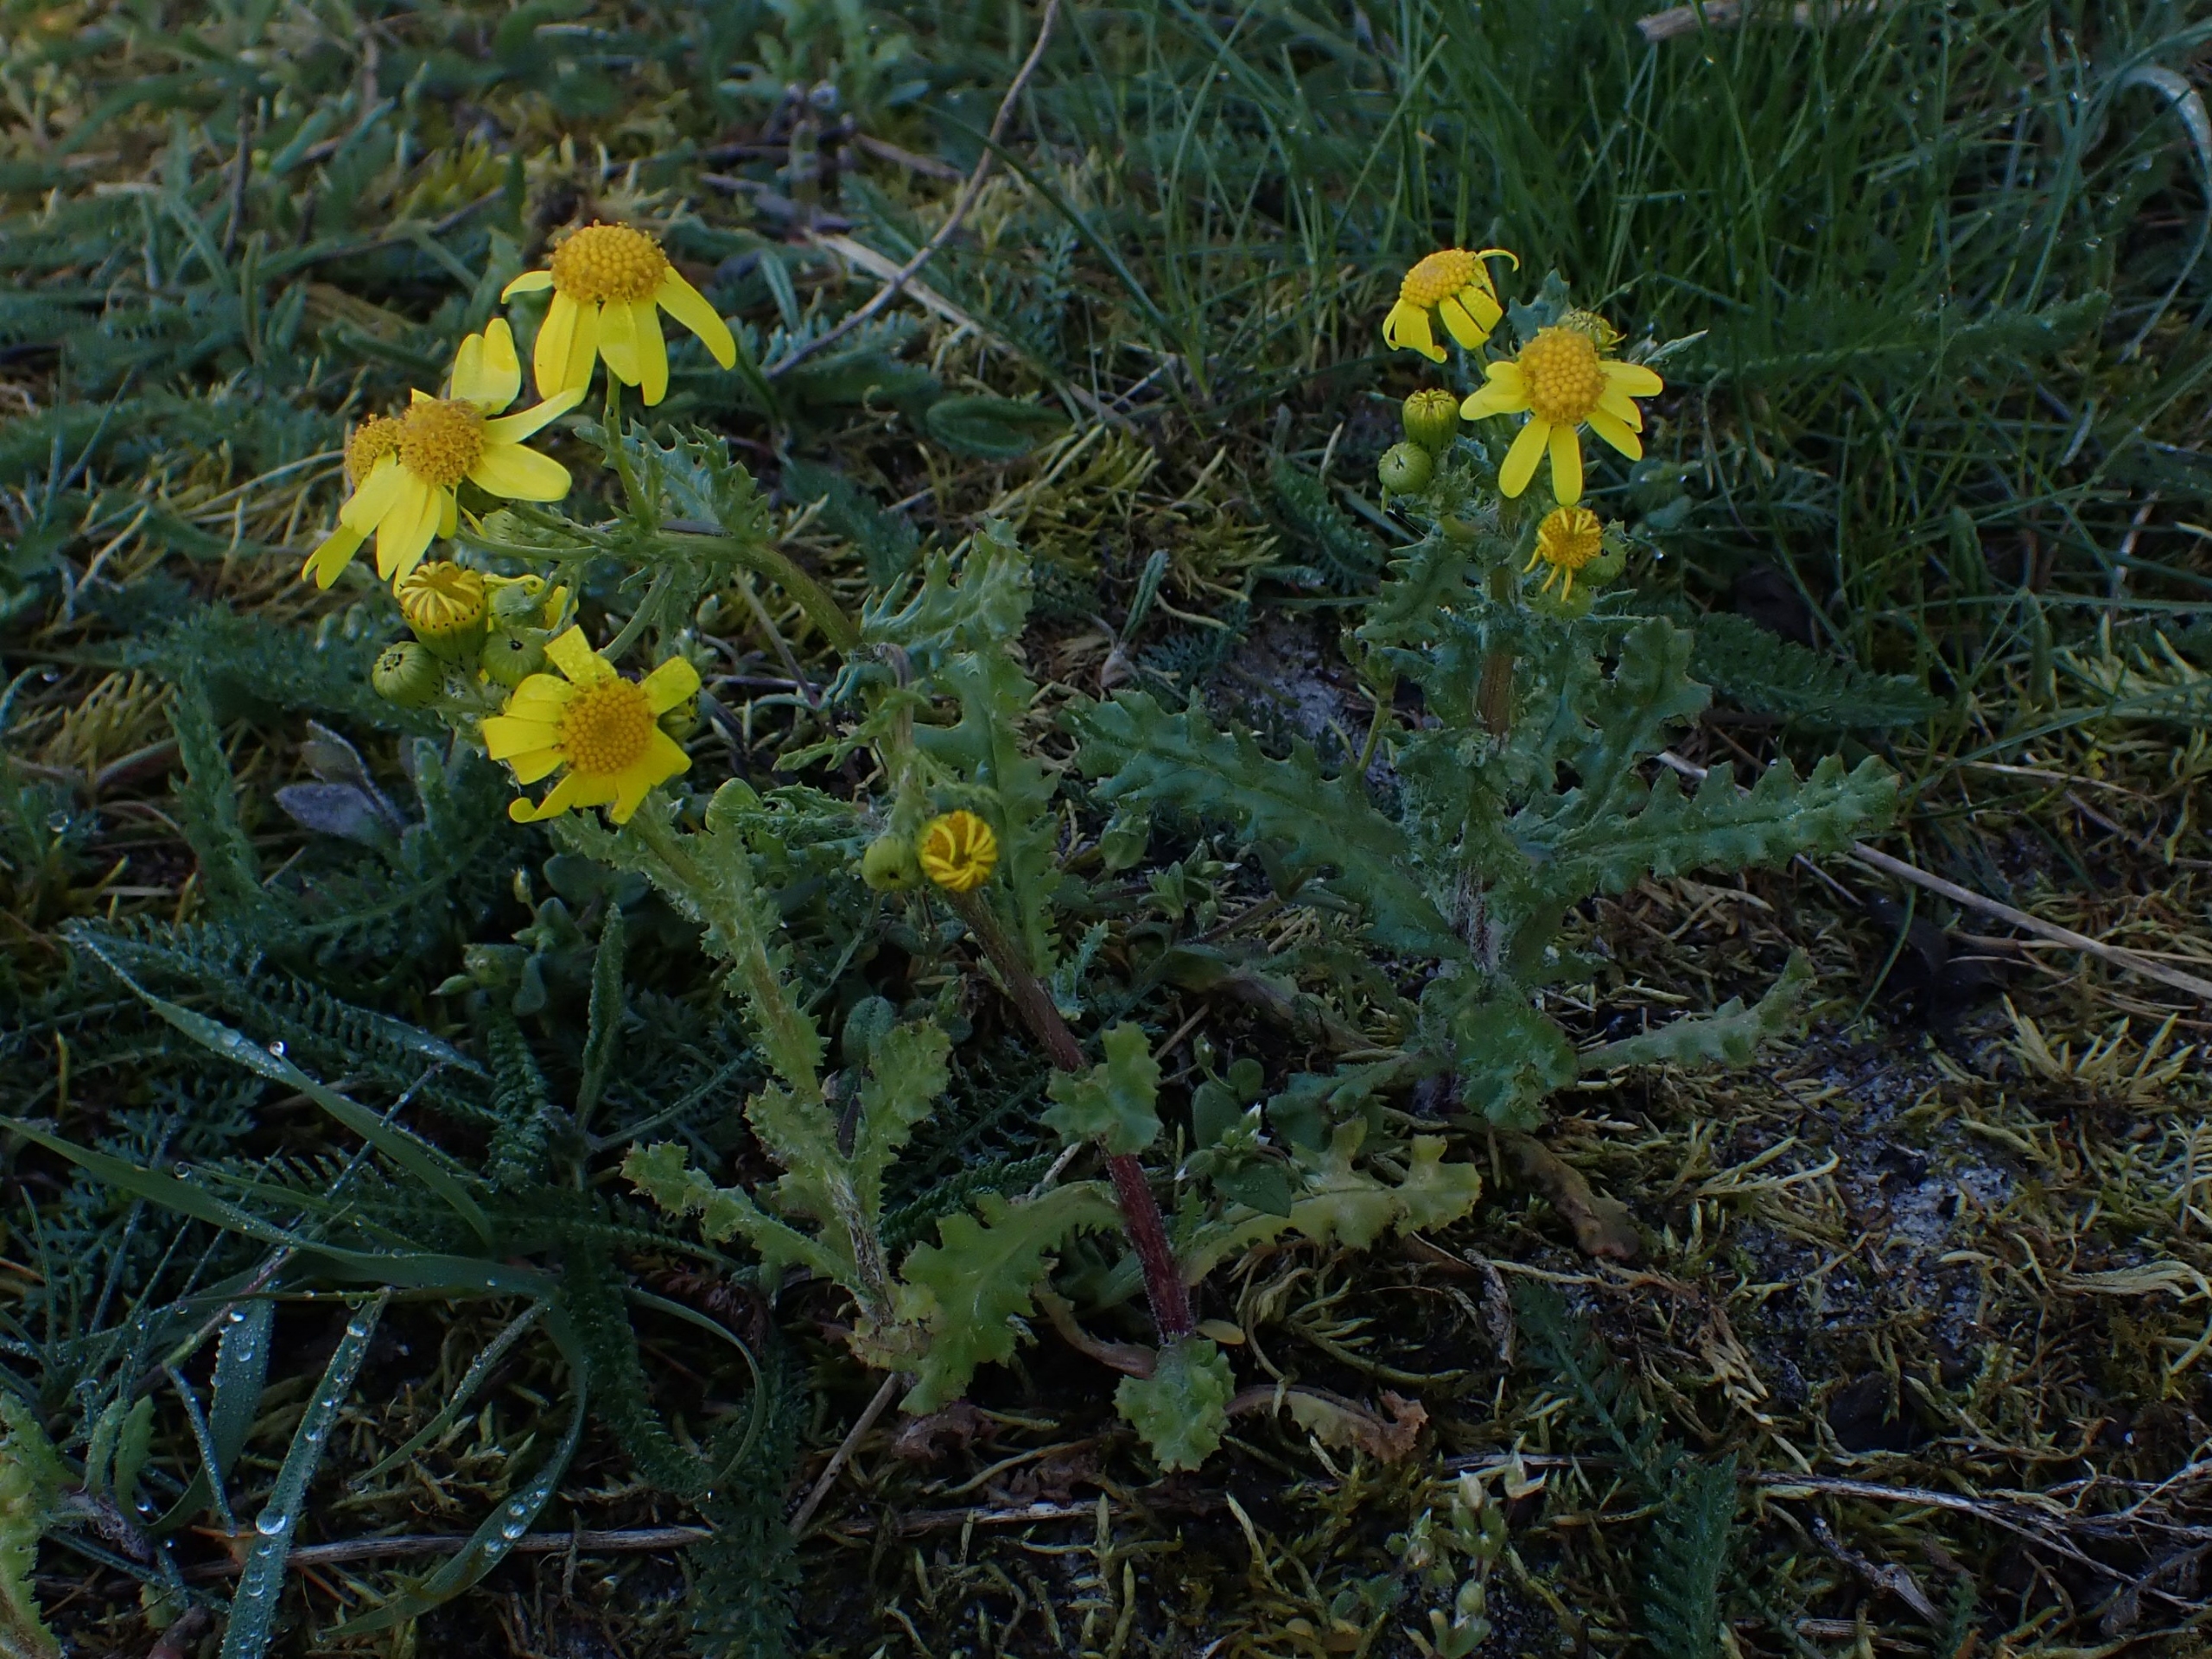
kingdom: Plantae
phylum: Tracheophyta
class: Magnoliopsida
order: Asterales
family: Asteraceae
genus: Senecio
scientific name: Senecio leucanthemifolius
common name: Vår-brandbæger
